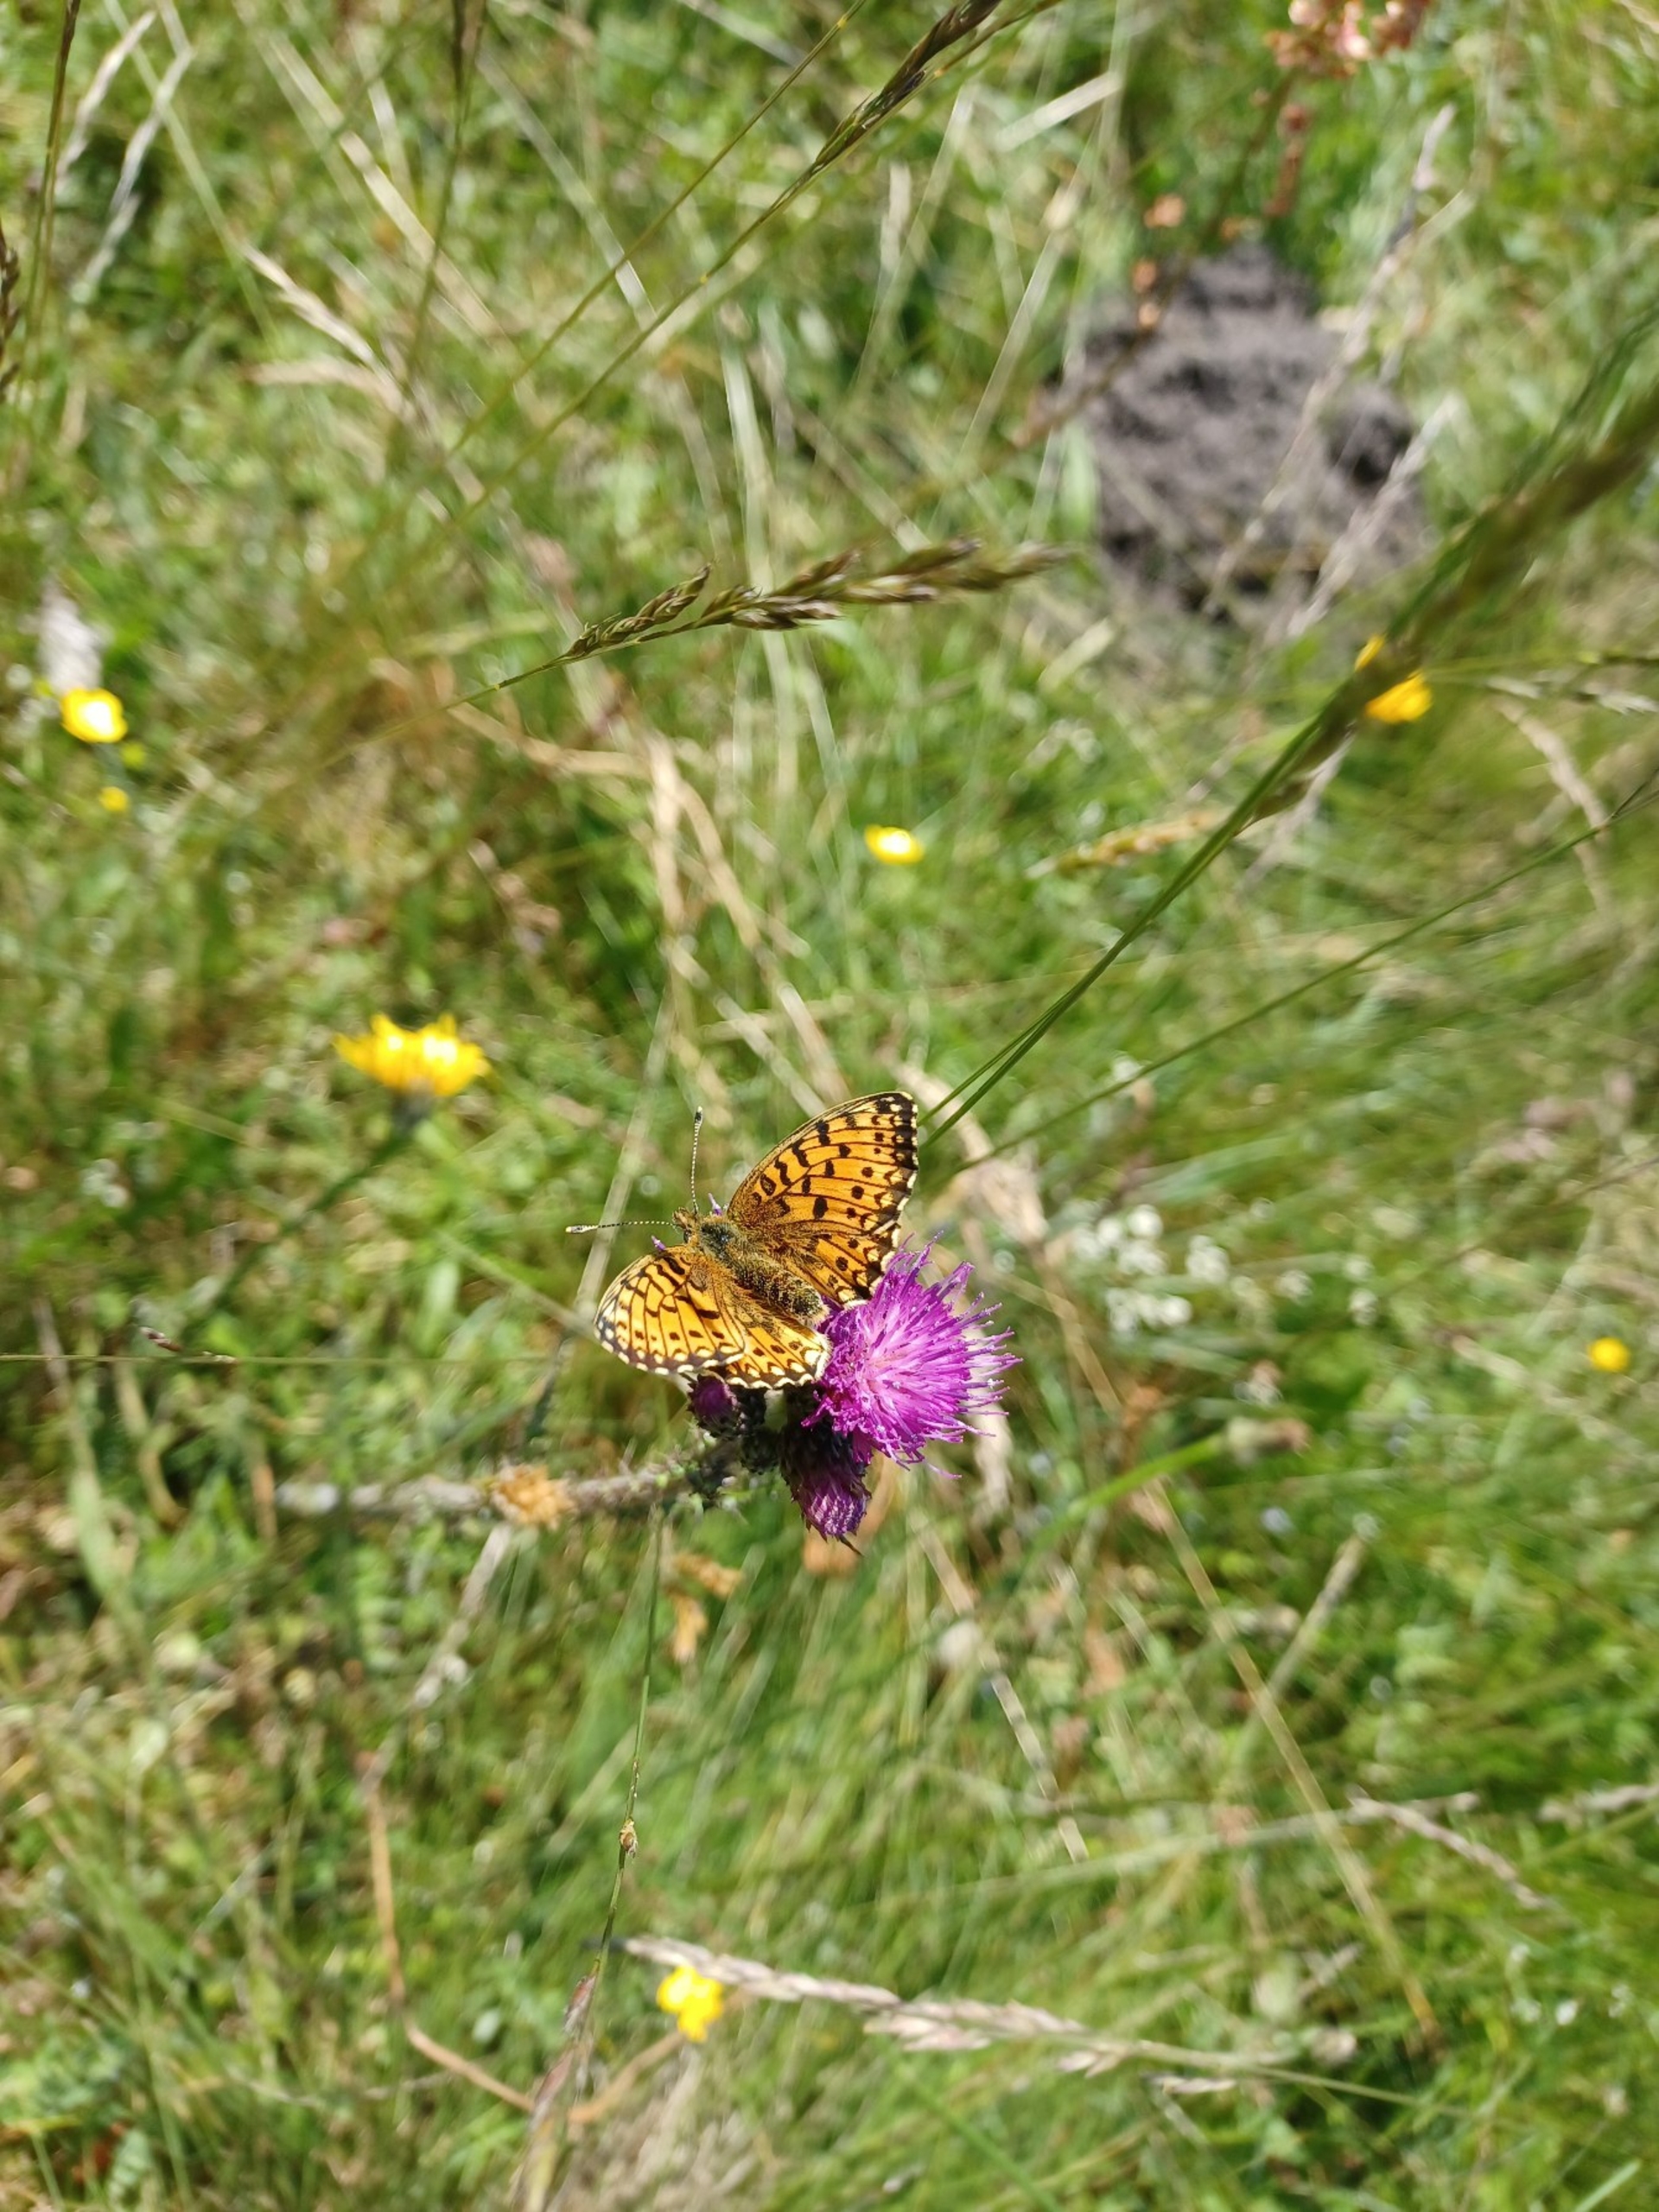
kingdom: Animalia
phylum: Arthropoda
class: Insecta
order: Lepidoptera
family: Nymphalidae
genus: Boloria
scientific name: Boloria selene
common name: Brunlig perlemorsommerfugl
